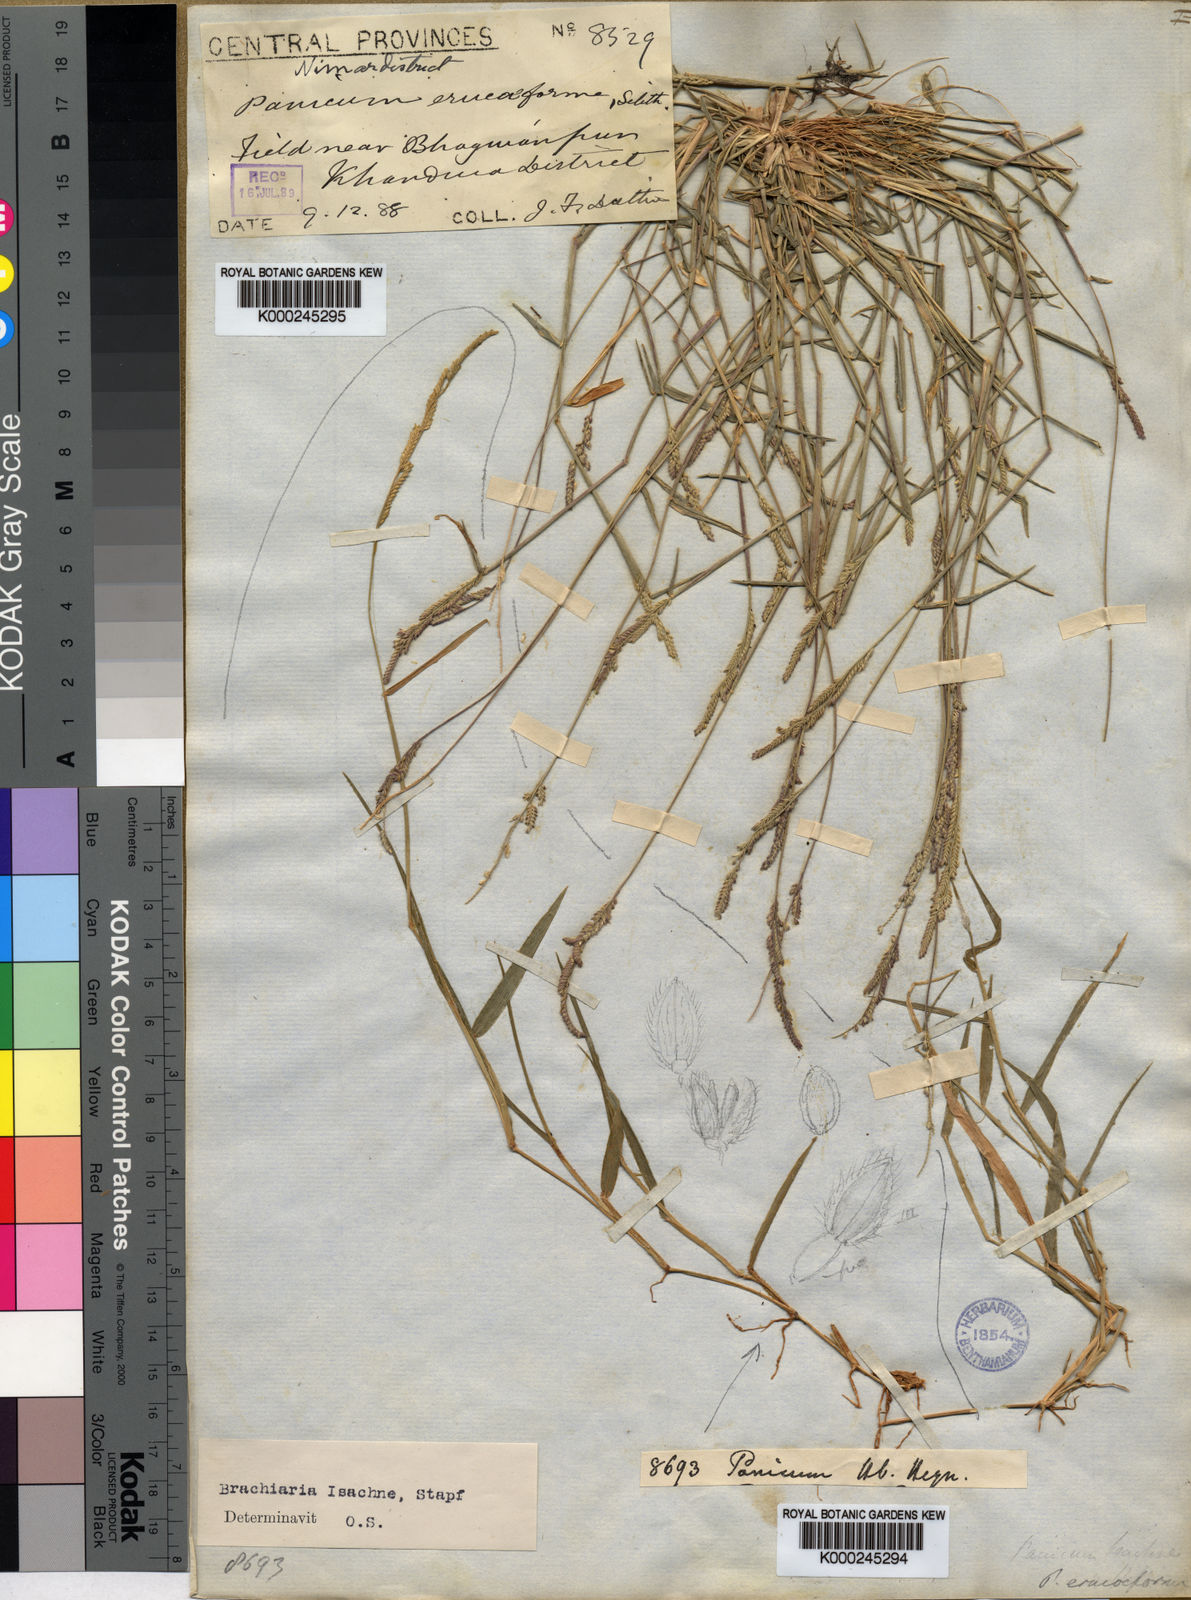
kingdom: Plantae
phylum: Tracheophyta
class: Liliopsida
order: Poales
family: Poaceae
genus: Moorochloa
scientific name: Moorochloa eruciformis
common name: Sweet signalgrass
